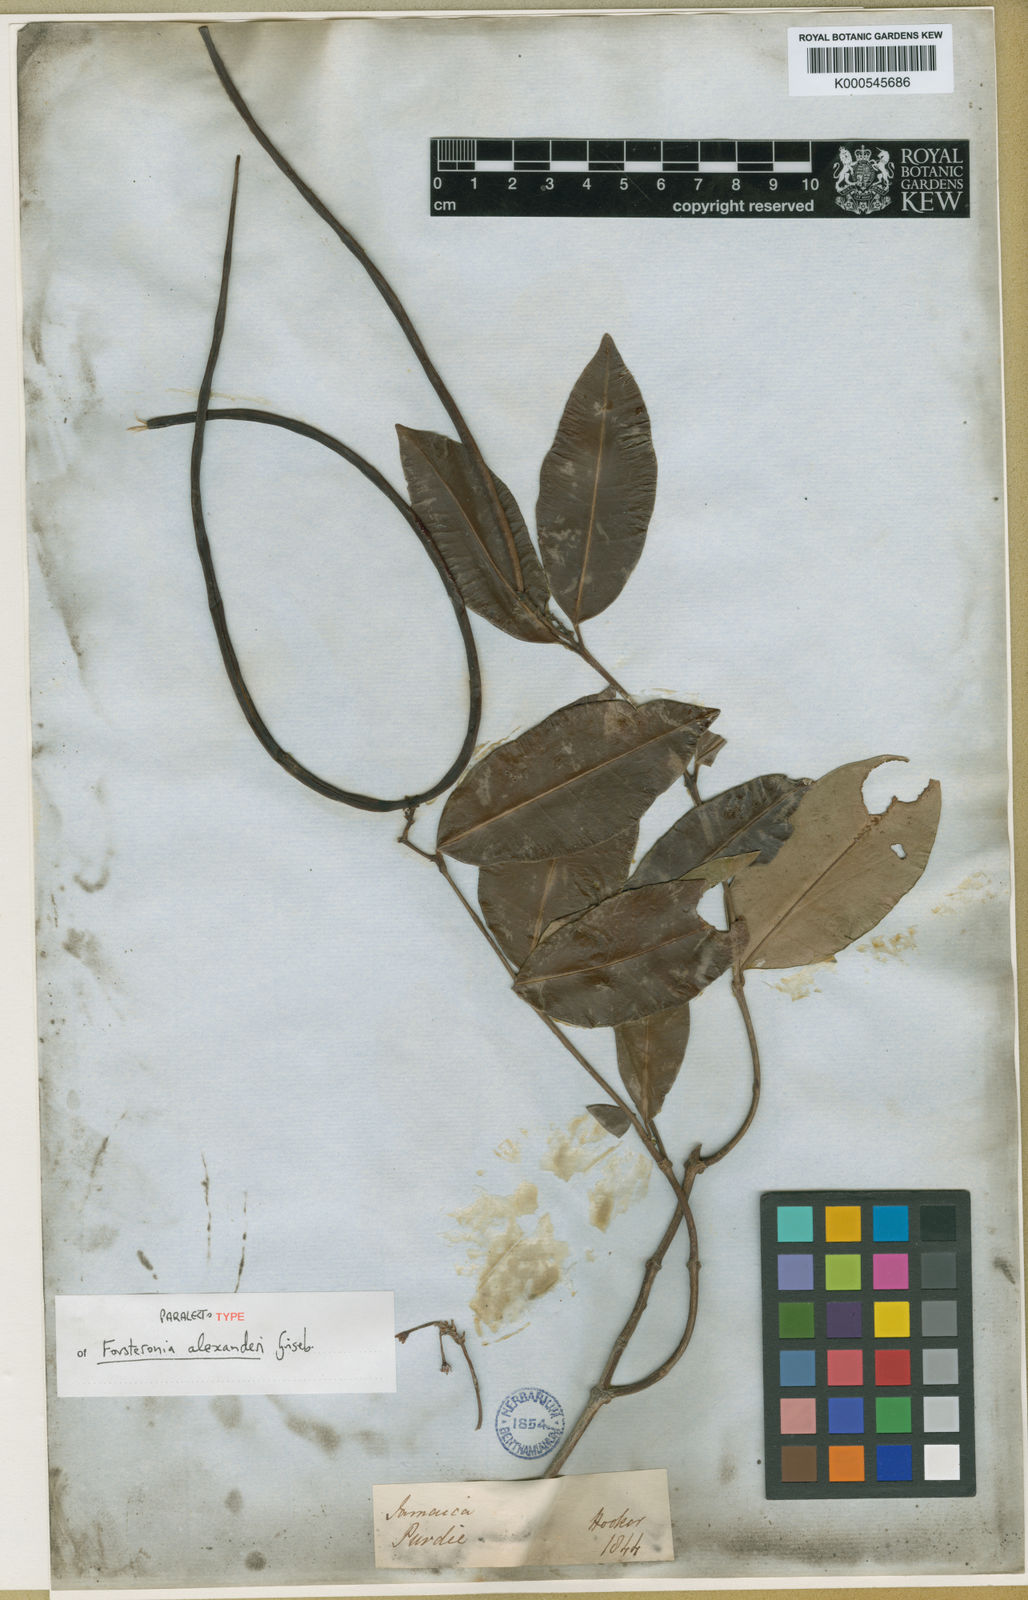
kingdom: Plantae
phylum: Tracheophyta
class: Magnoliopsida
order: Gentianales
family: Apocynaceae
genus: Pinochia
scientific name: Pinochia floribunda
